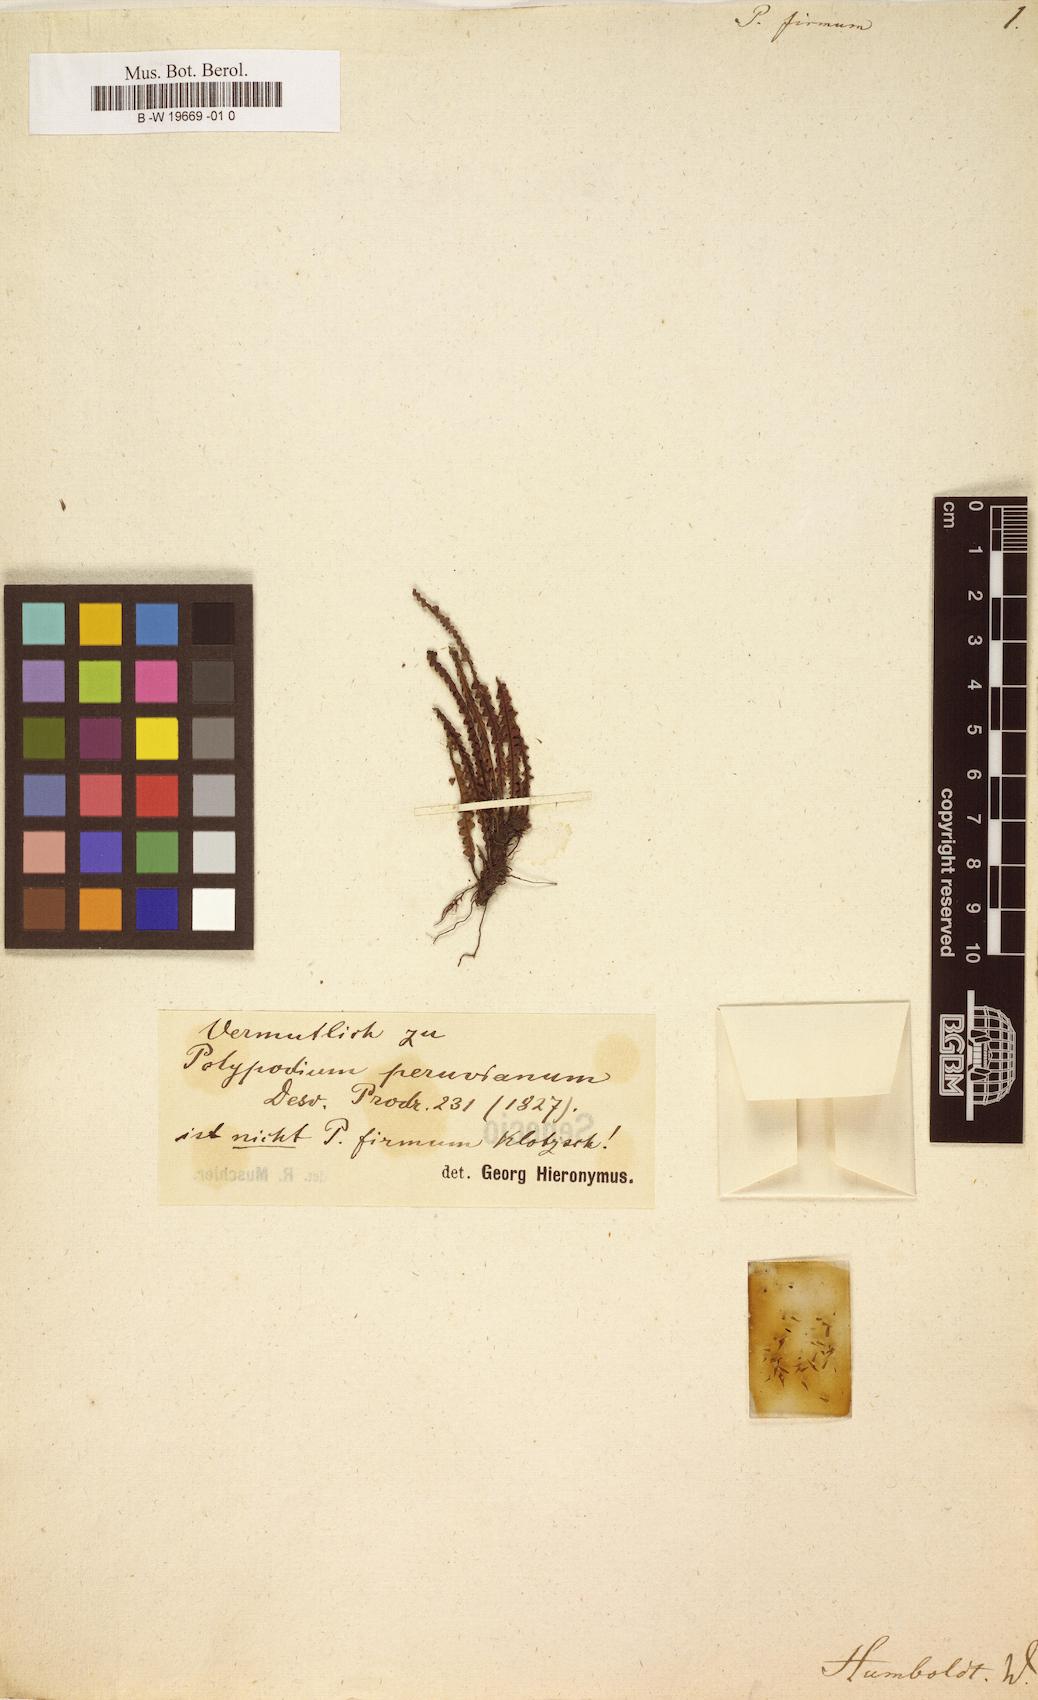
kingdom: Plantae
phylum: Tracheophyta
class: Polypodiopsida
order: Polypodiales
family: Polypodiaceae
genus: Melpomene
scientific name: Melpomene firma
